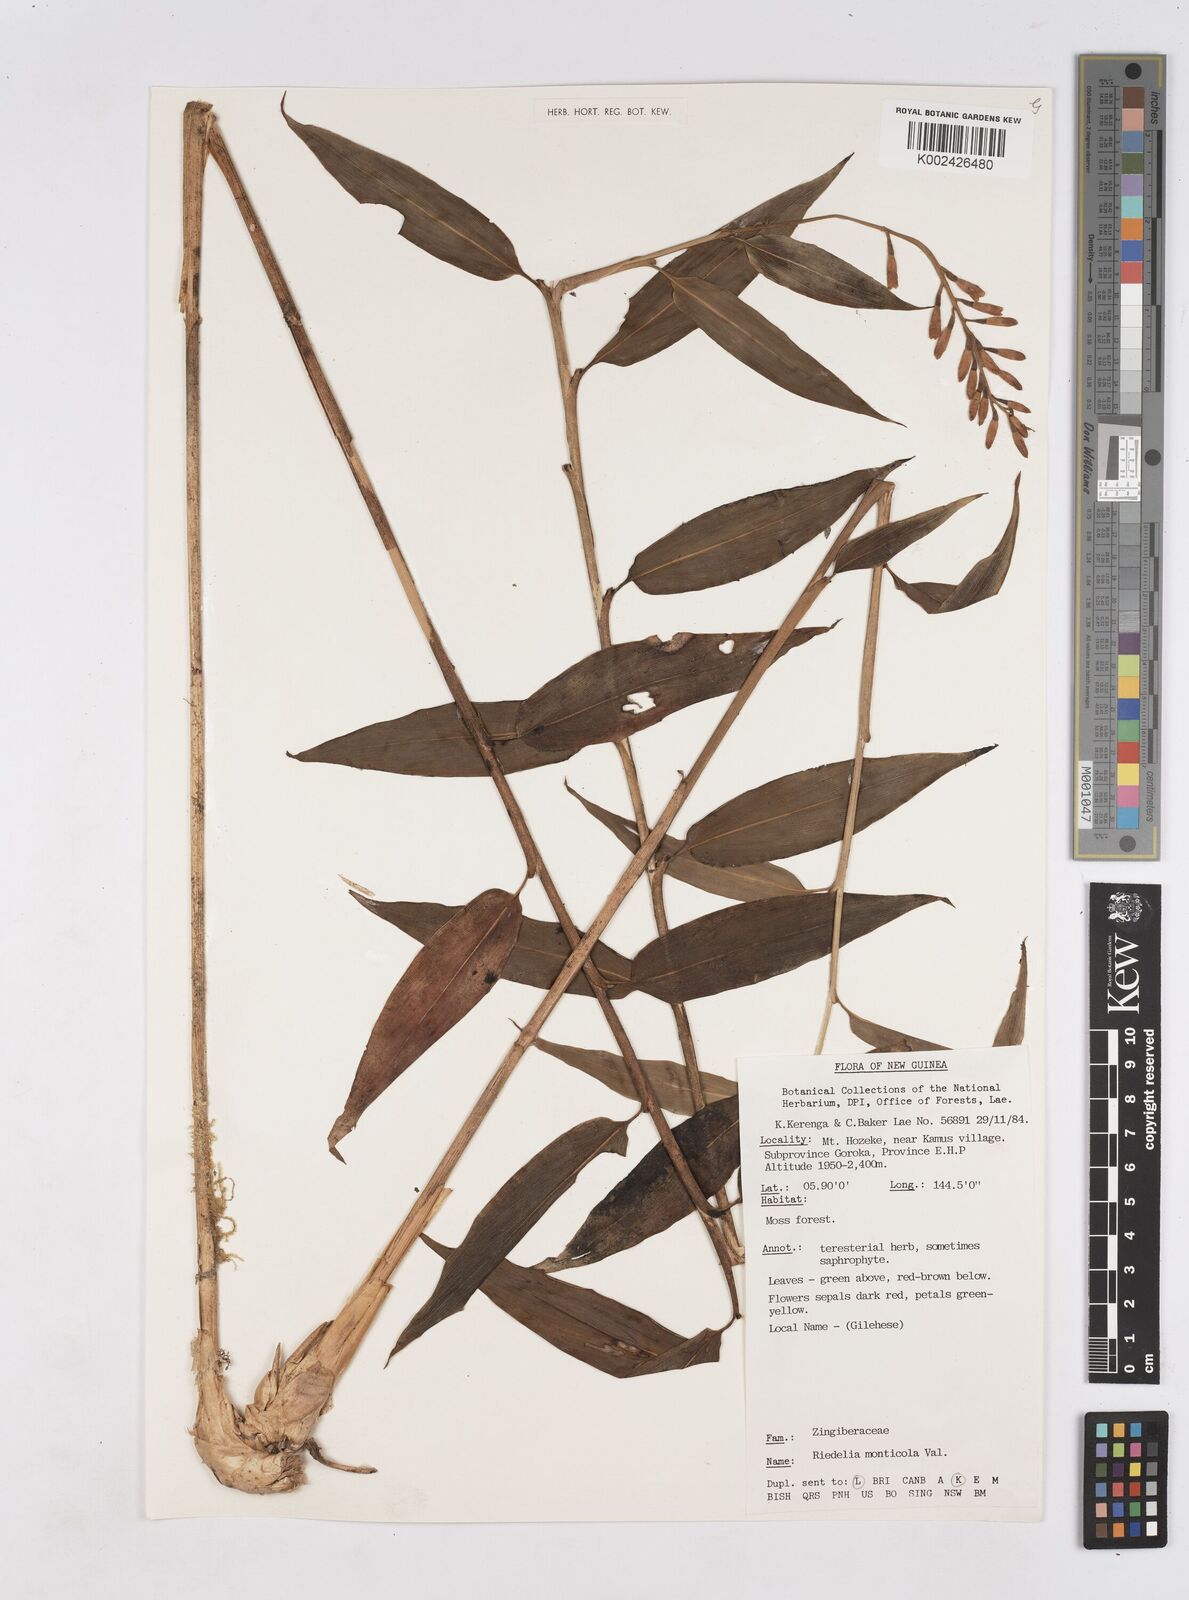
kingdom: Plantae
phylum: Tracheophyta
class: Liliopsida
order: Zingiberales
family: Zingiberaceae
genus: Riedelia
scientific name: Riedelia monticola
